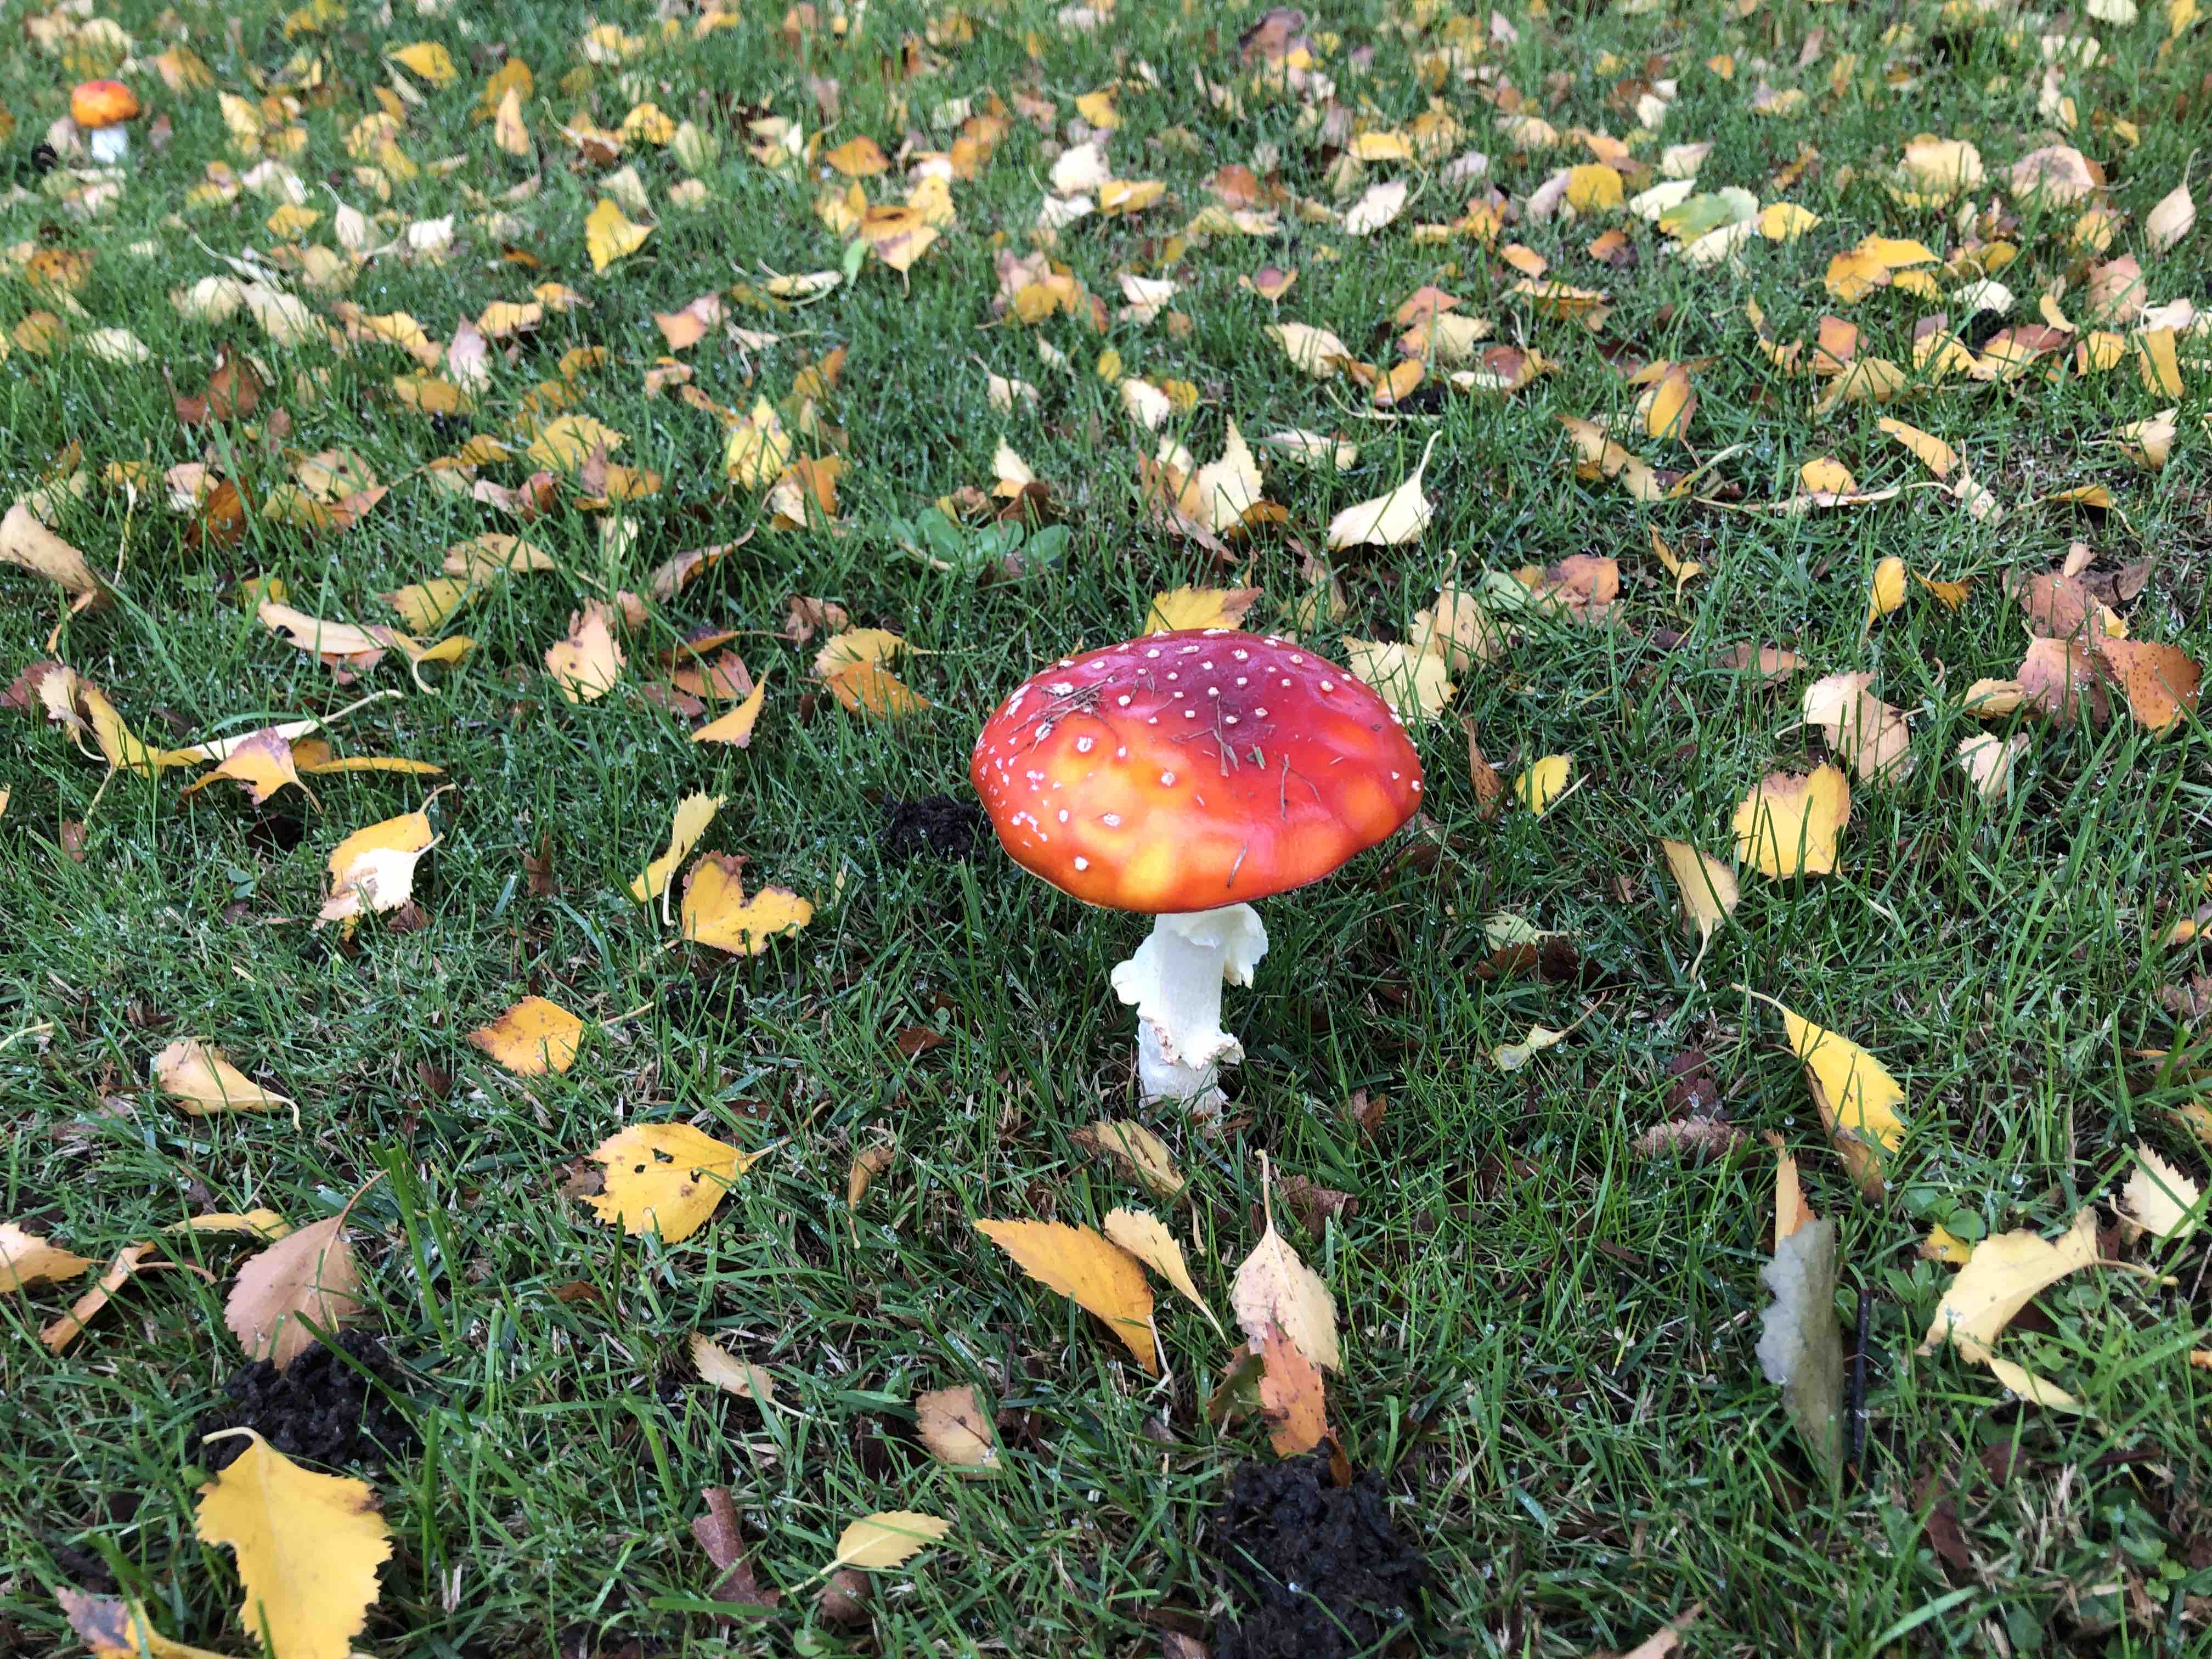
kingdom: Fungi
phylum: Basidiomycota
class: Agaricomycetes
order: Agaricales
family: Amanitaceae
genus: Amanita
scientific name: Amanita muscaria
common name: rød fluesvamp
